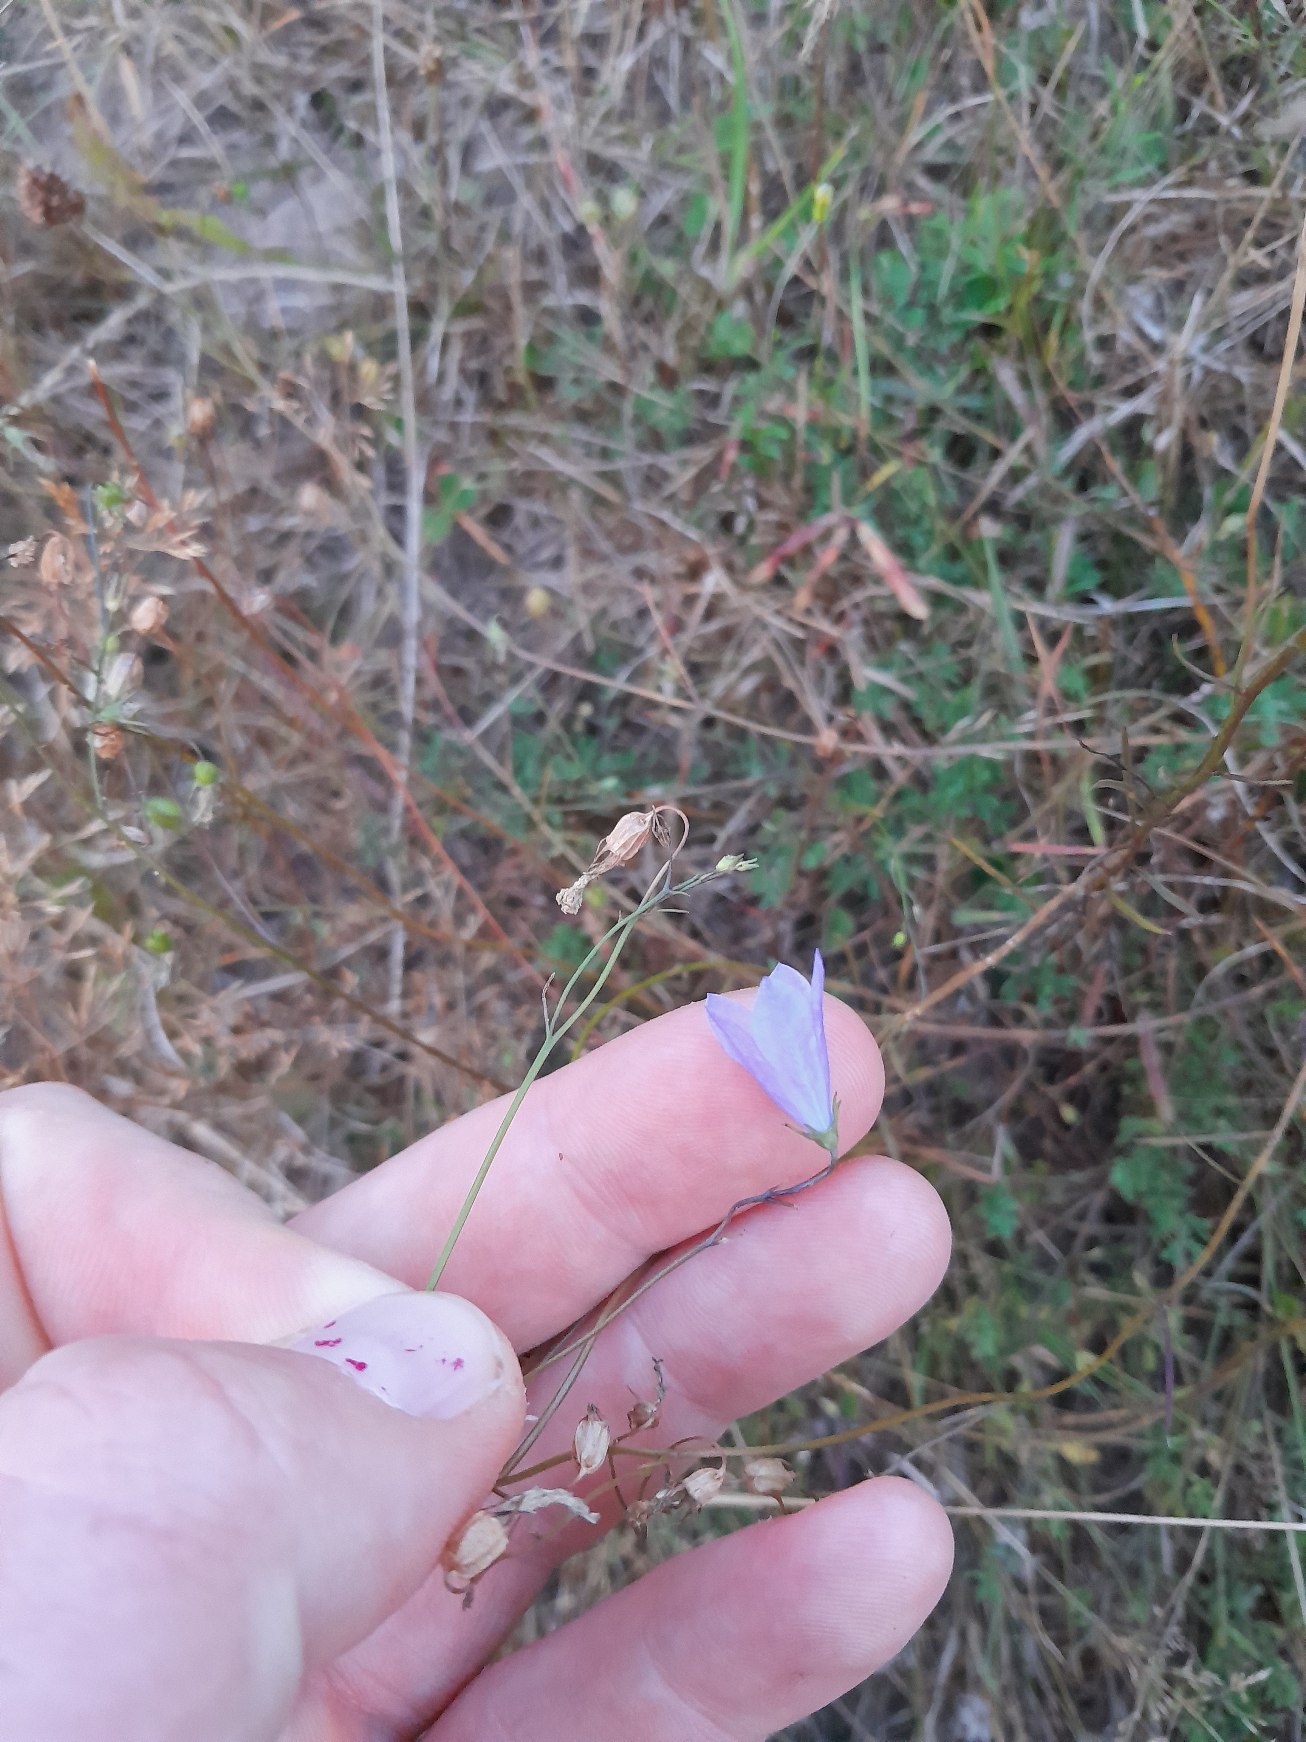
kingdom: Plantae
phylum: Tracheophyta
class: Magnoliopsida
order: Asterales
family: Campanulaceae
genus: Campanula
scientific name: Campanula rotundifolia
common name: Liden klokke
